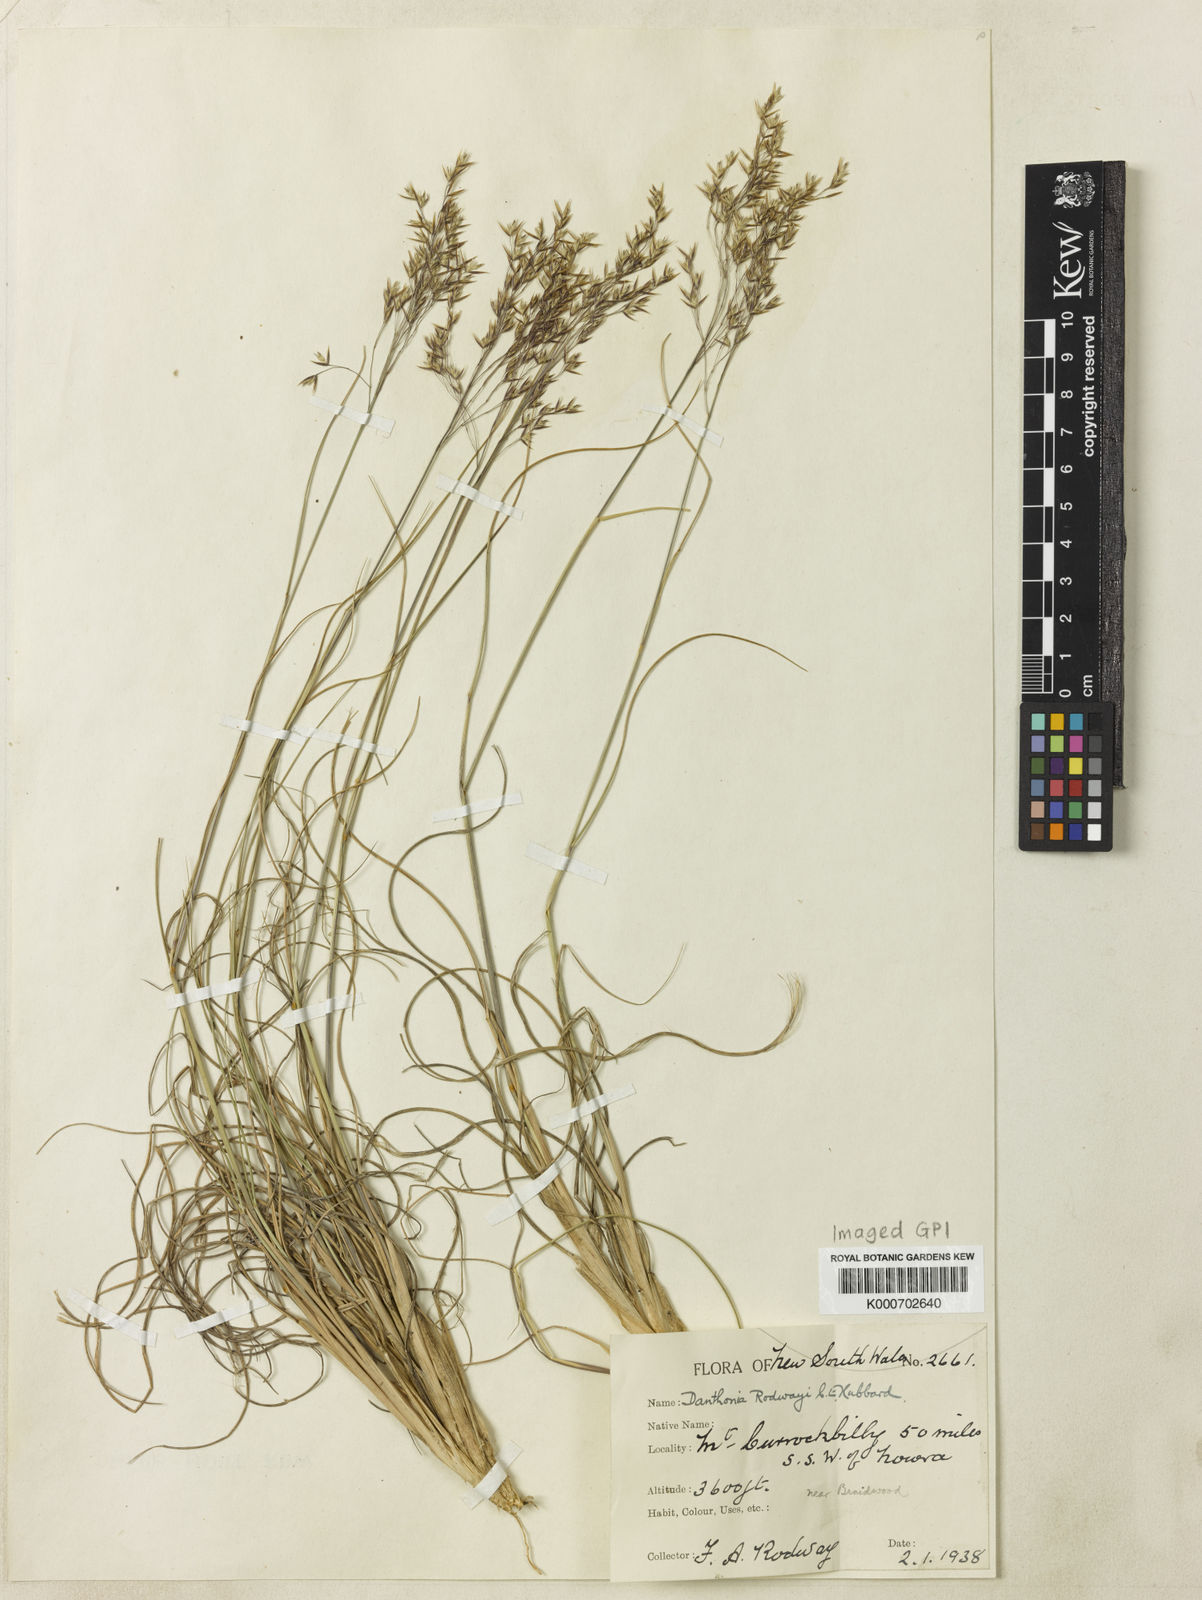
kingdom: Plantae
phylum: Tracheophyta
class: Liliopsida
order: Poales
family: Poaceae
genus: Plinthanthesis
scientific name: Plinthanthesis rodwayi
